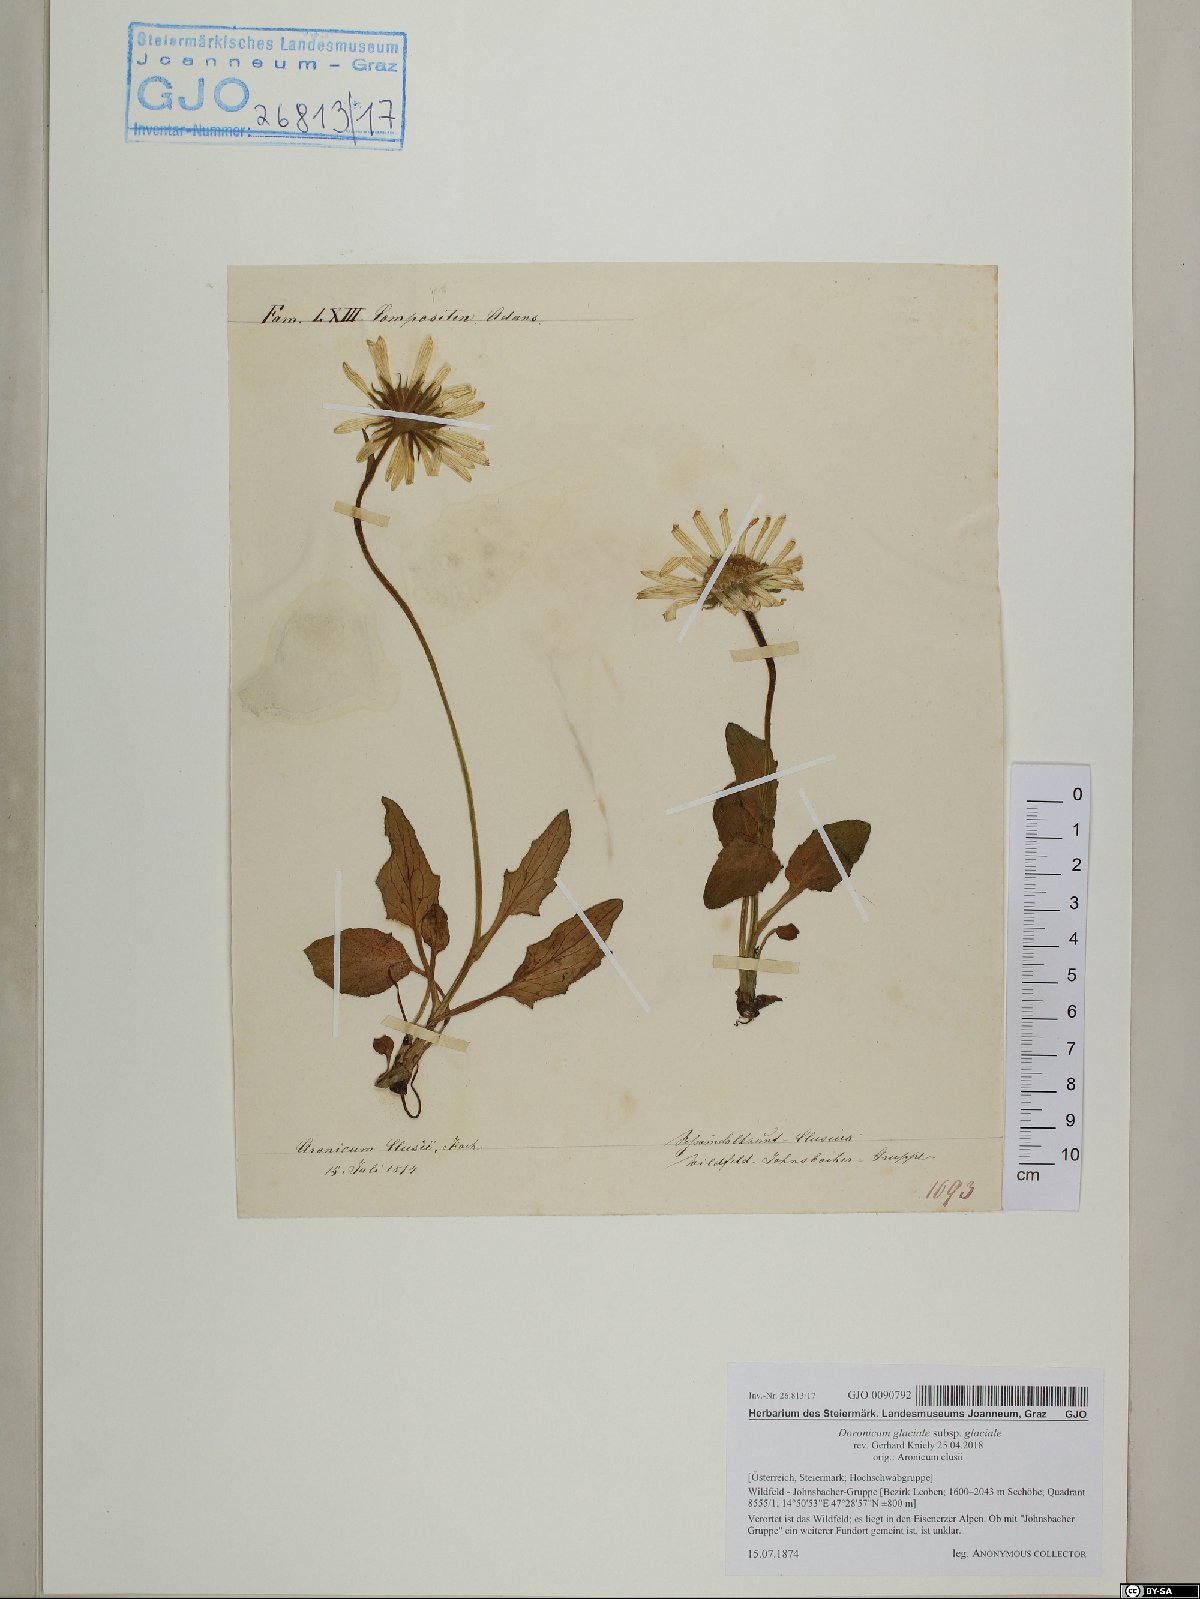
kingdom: Plantae
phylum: Tracheophyta
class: Magnoliopsida
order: Asterales
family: Asteraceae
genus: Doronicum
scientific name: Doronicum glaciale
